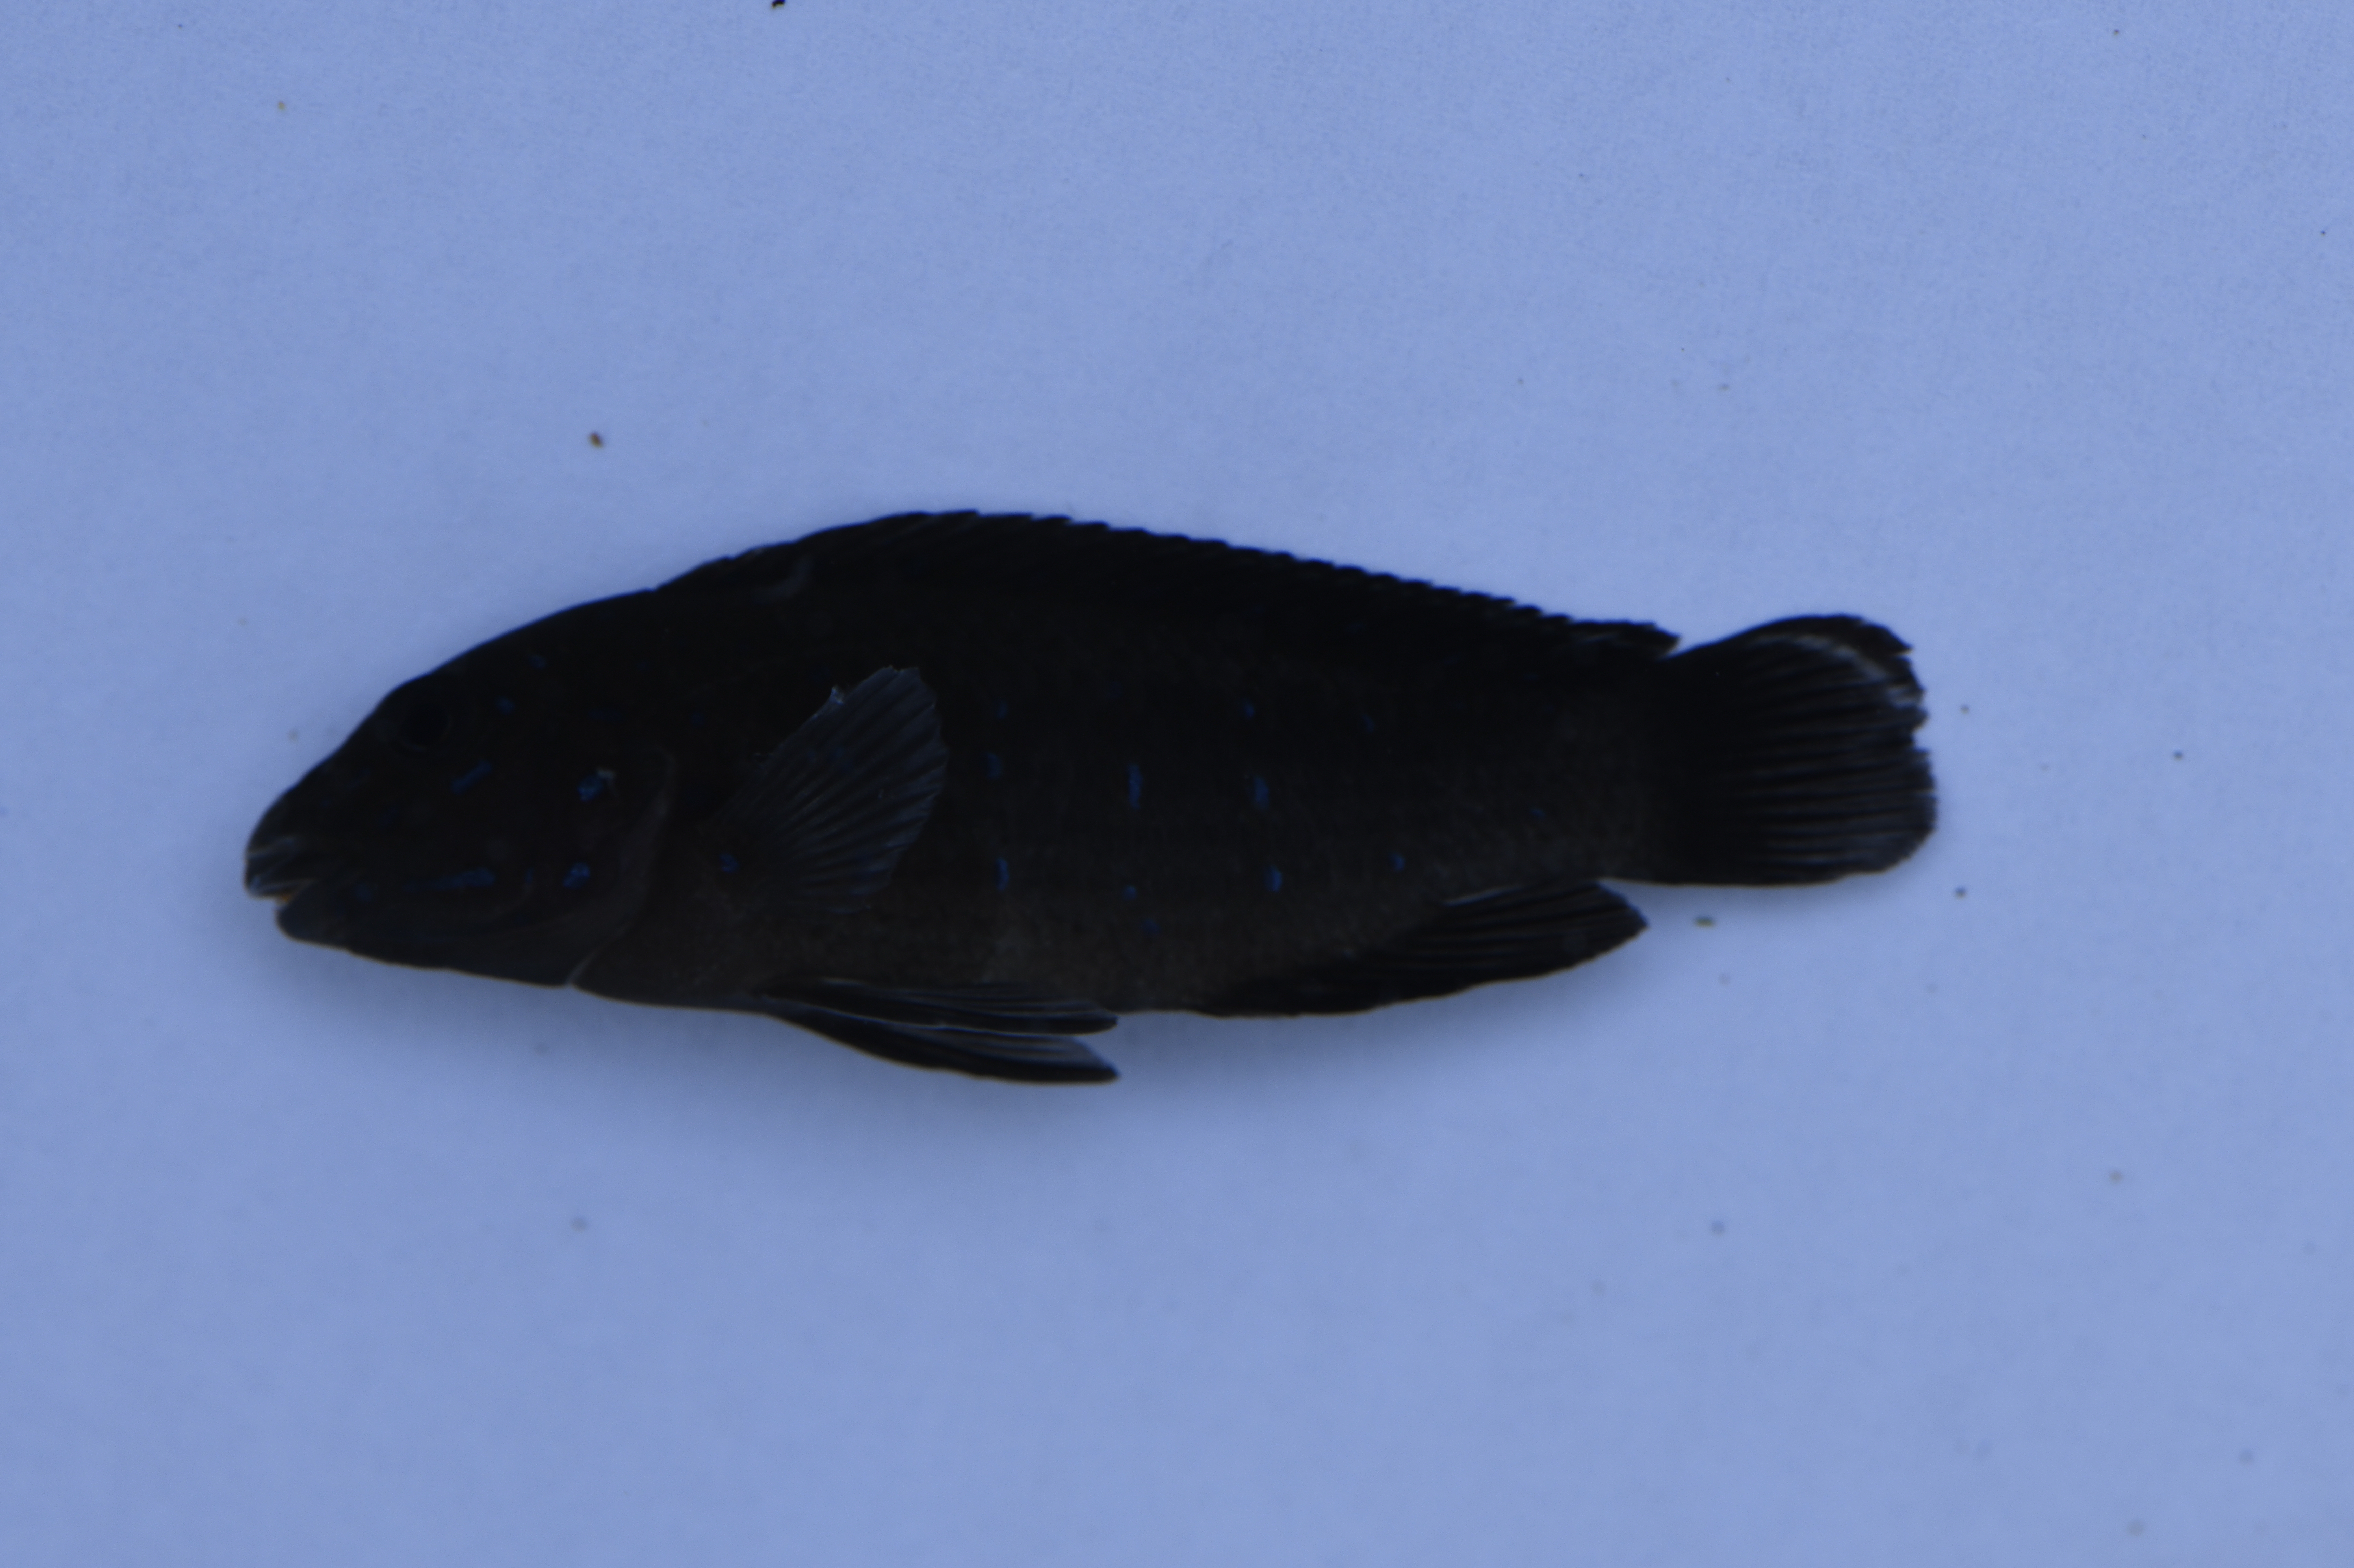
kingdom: Animalia
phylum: Chordata
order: Perciformes
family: Cichlidae
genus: Eretmodus
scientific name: Eretmodus cyanostictus
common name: Tanganyika clown
